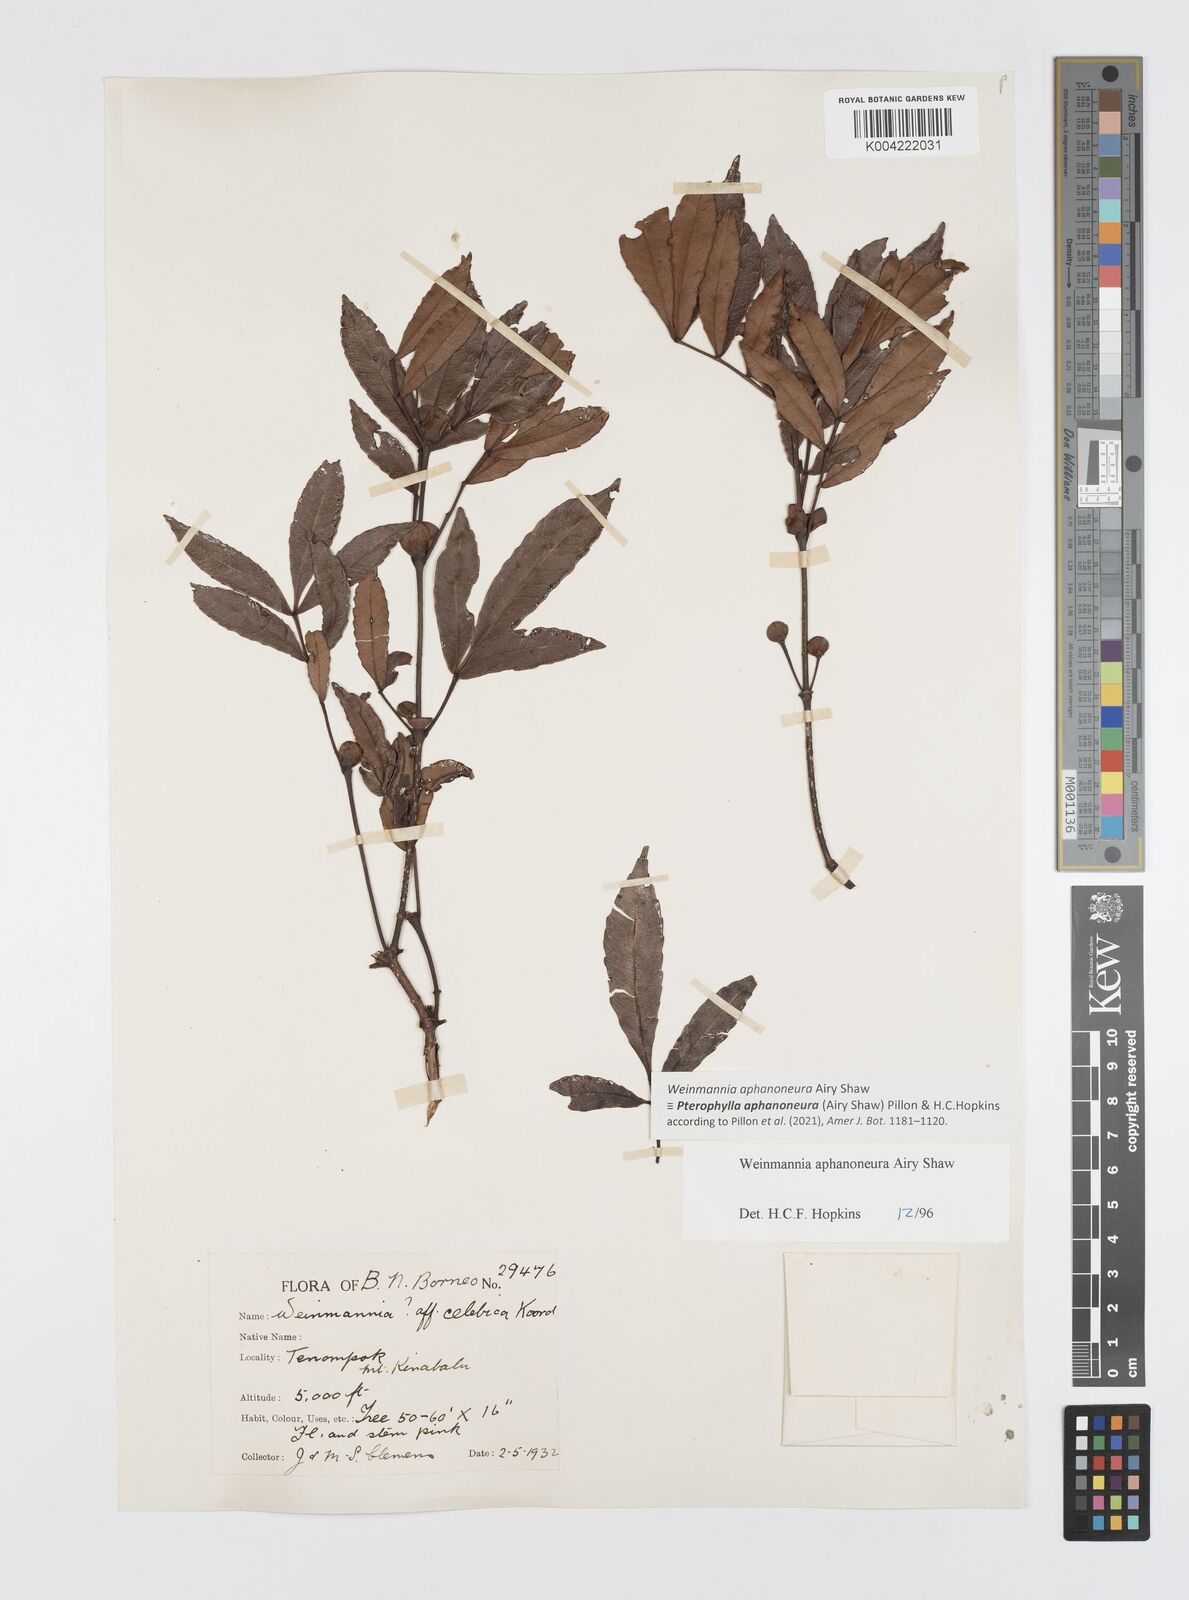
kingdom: Plantae
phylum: Tracheophyta
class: Magnoliopsida
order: Oxalidales
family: Cunoniaceae
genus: Pterophylla
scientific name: Pterophylla aphanoneura
